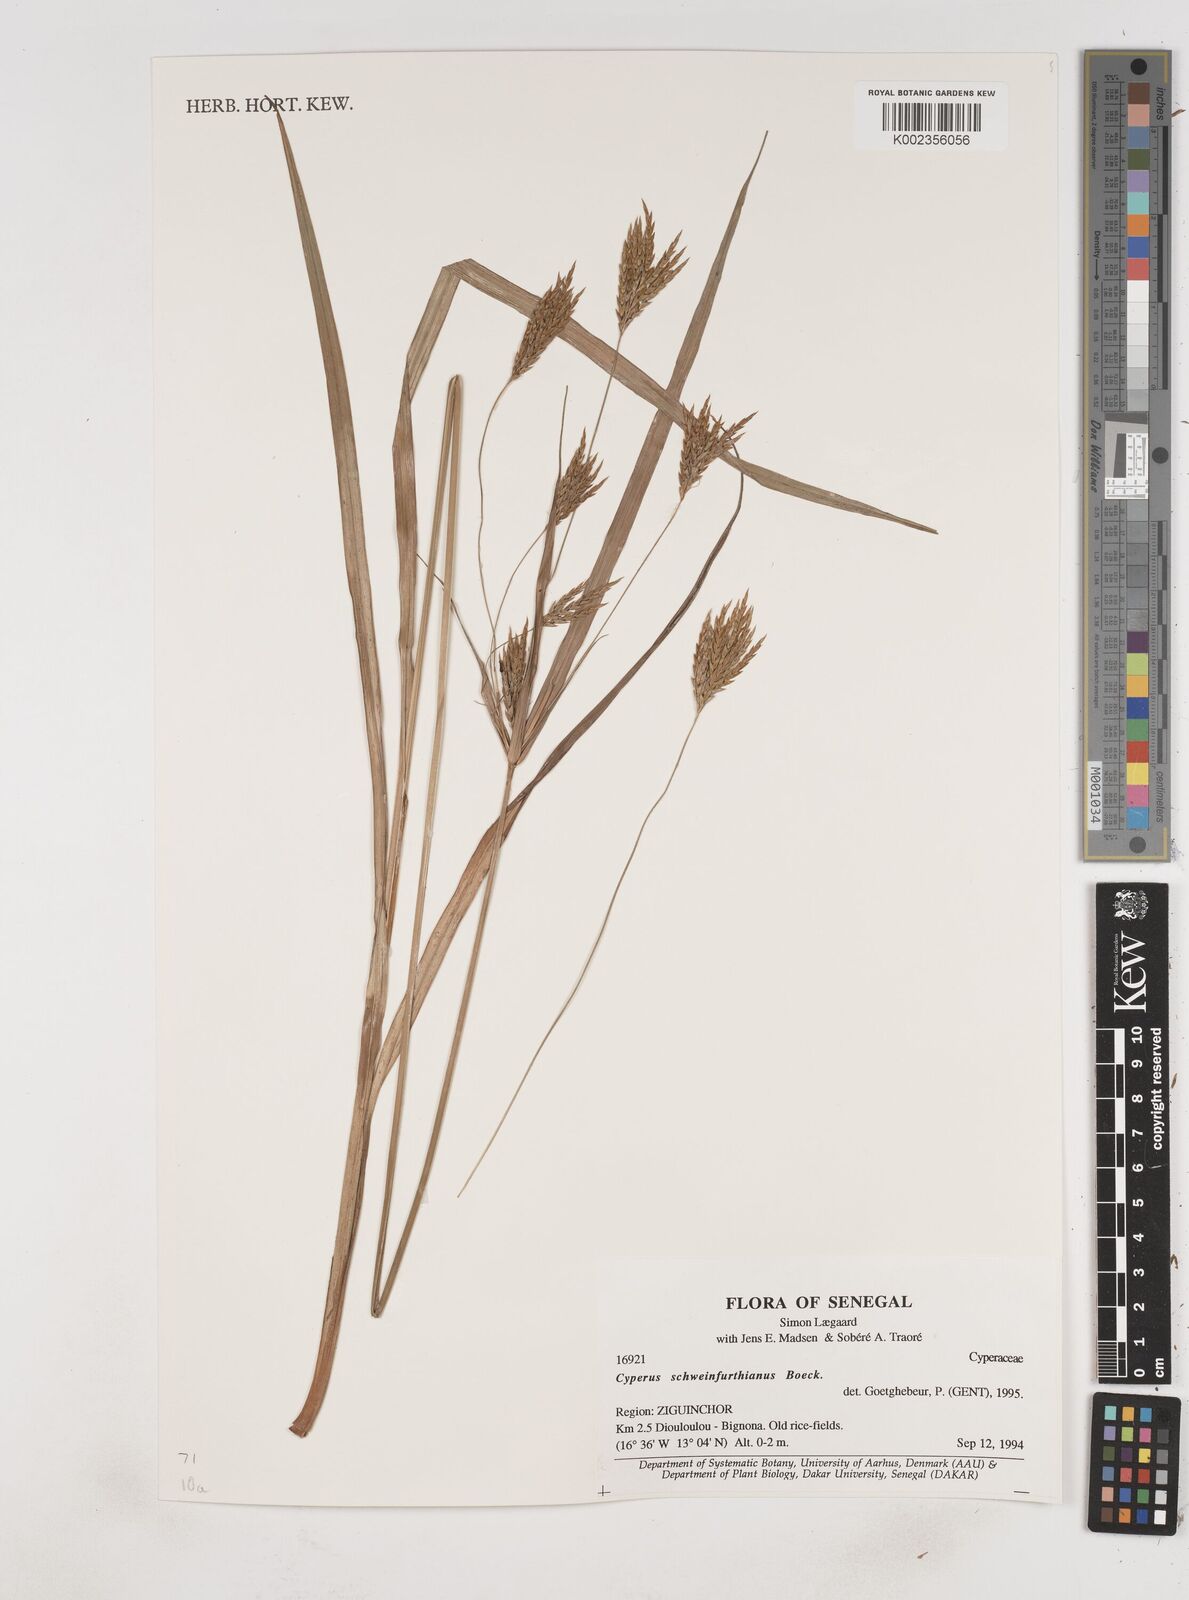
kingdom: Plantae
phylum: Tracheophyta
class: Liliopsida
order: Poales
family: Cyperaceae
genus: Cyperus
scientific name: Cyperus tenuiculmis
